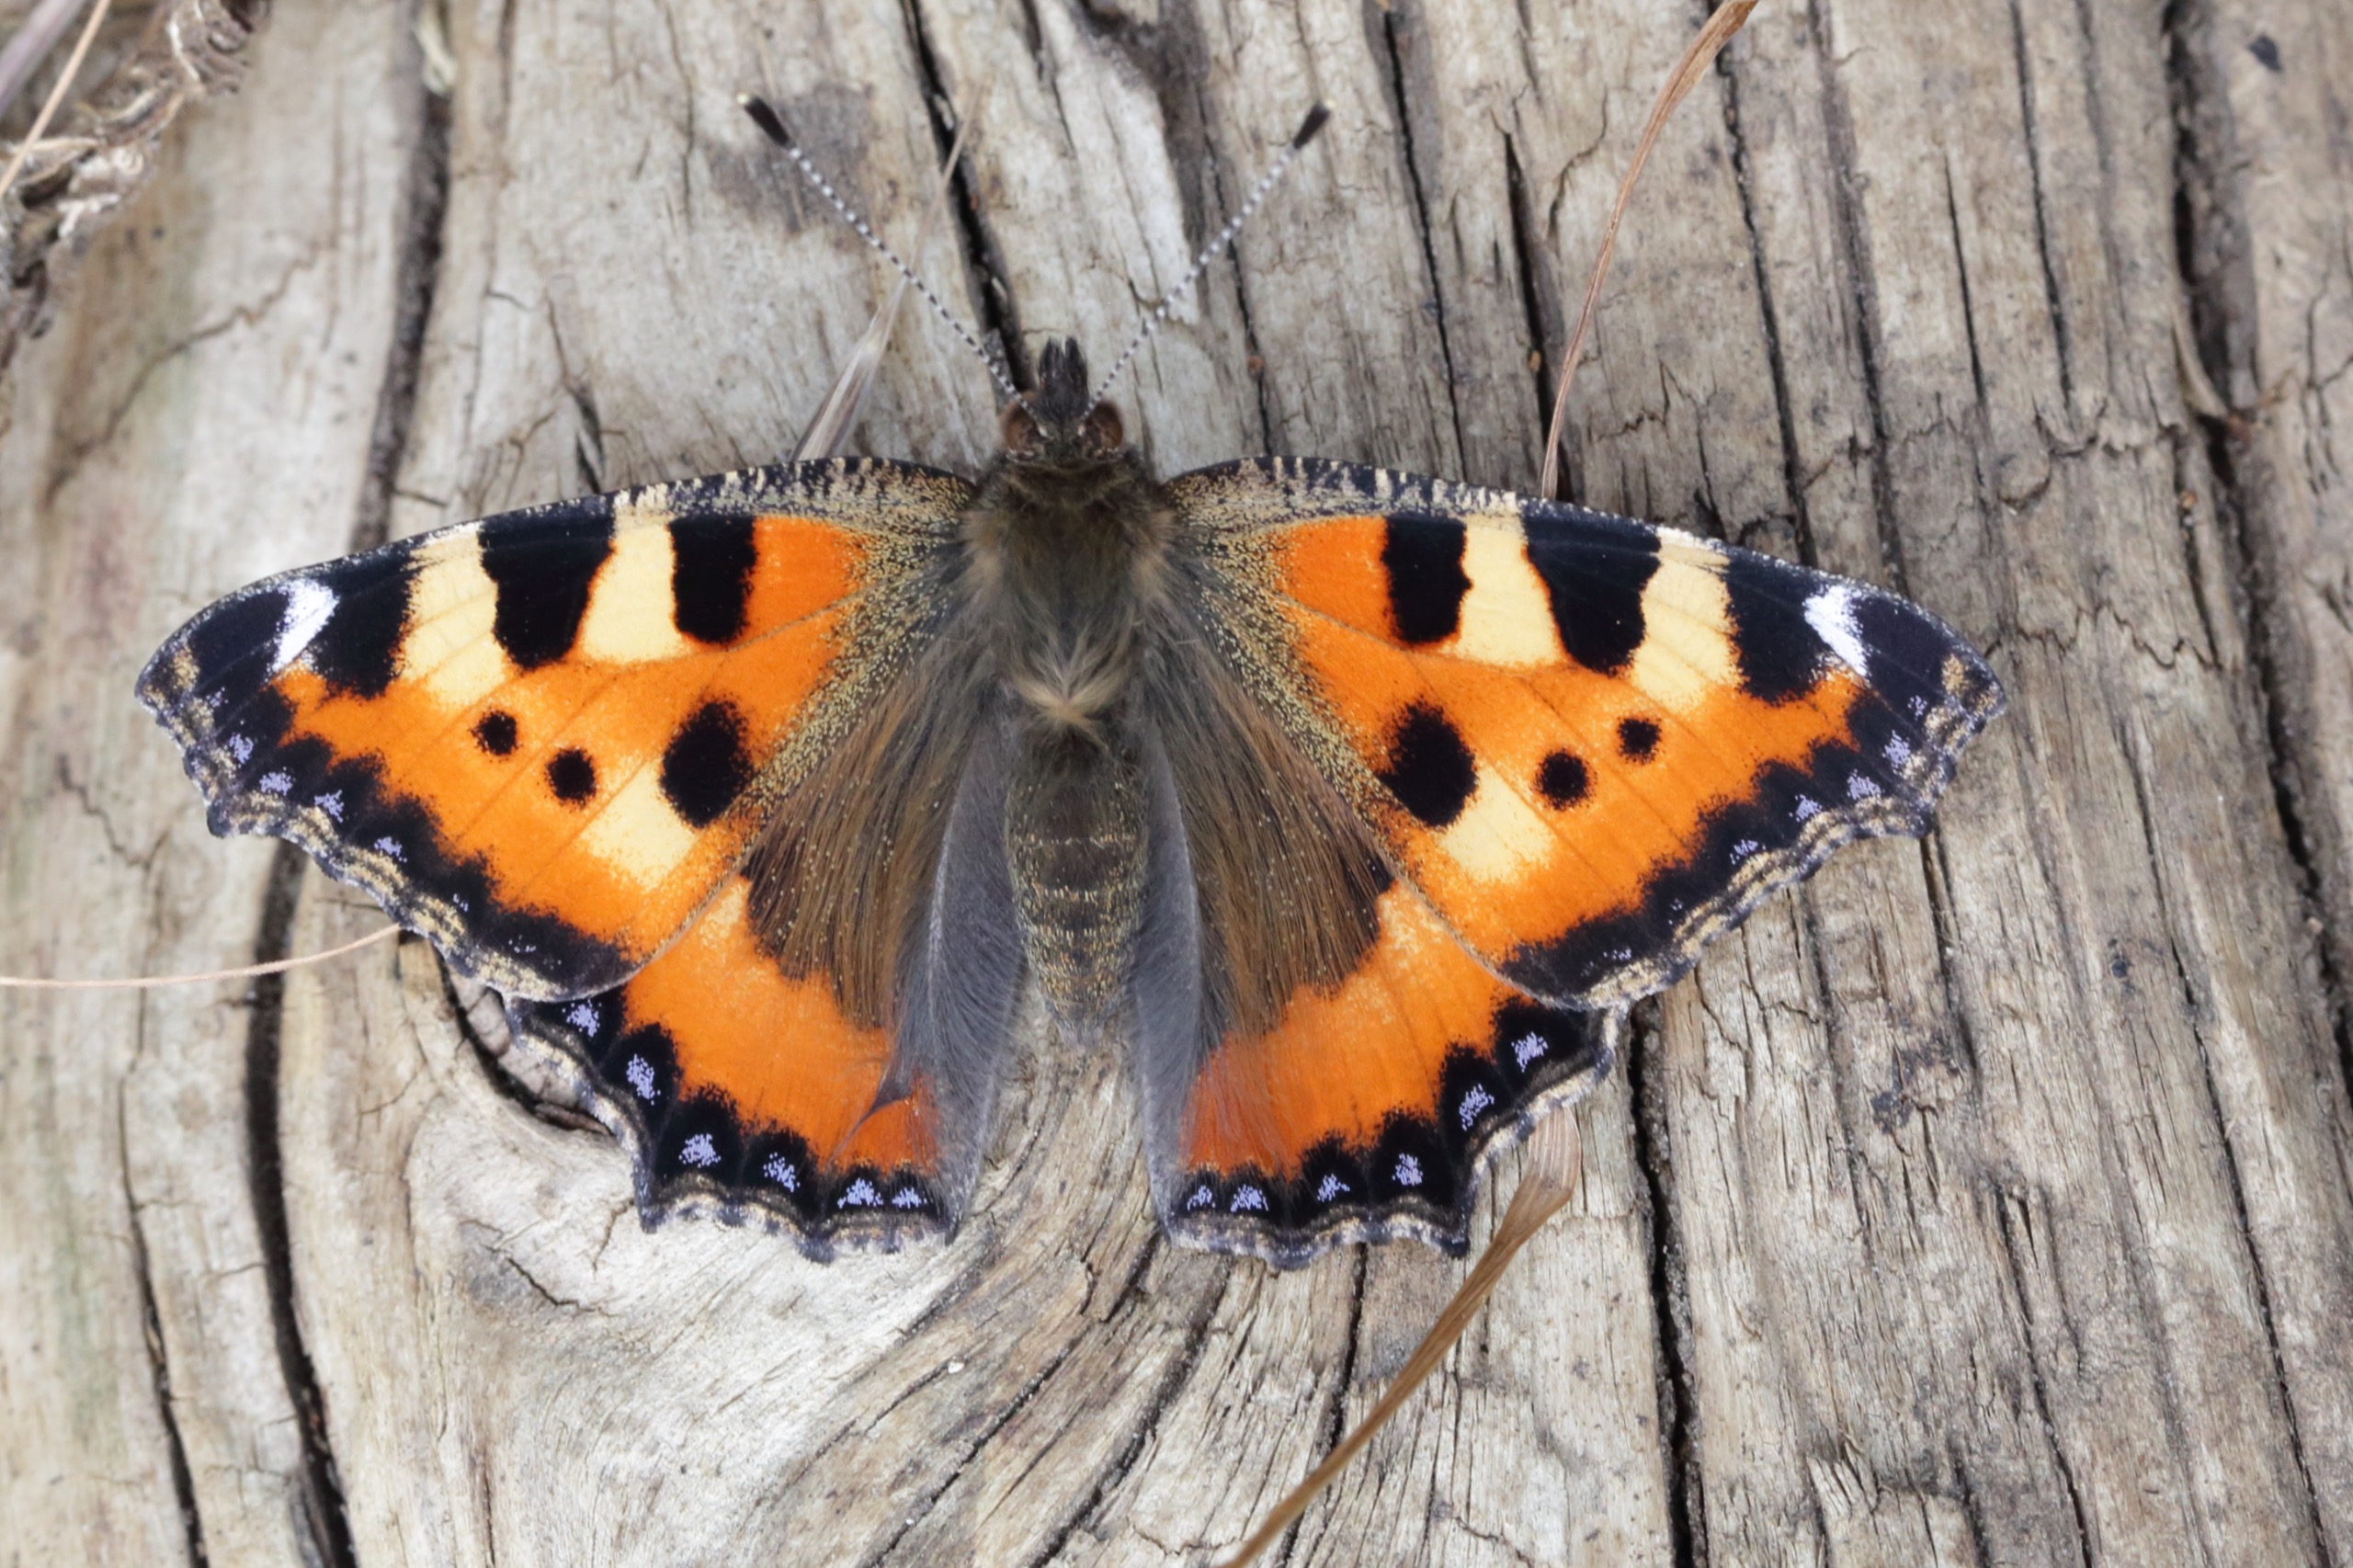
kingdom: Animalia
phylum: Arthropoda
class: Insecta
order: Lepidoptera
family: Nymphalidae
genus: Aglais
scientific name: Aglais urticae
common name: Nældens takvinge
